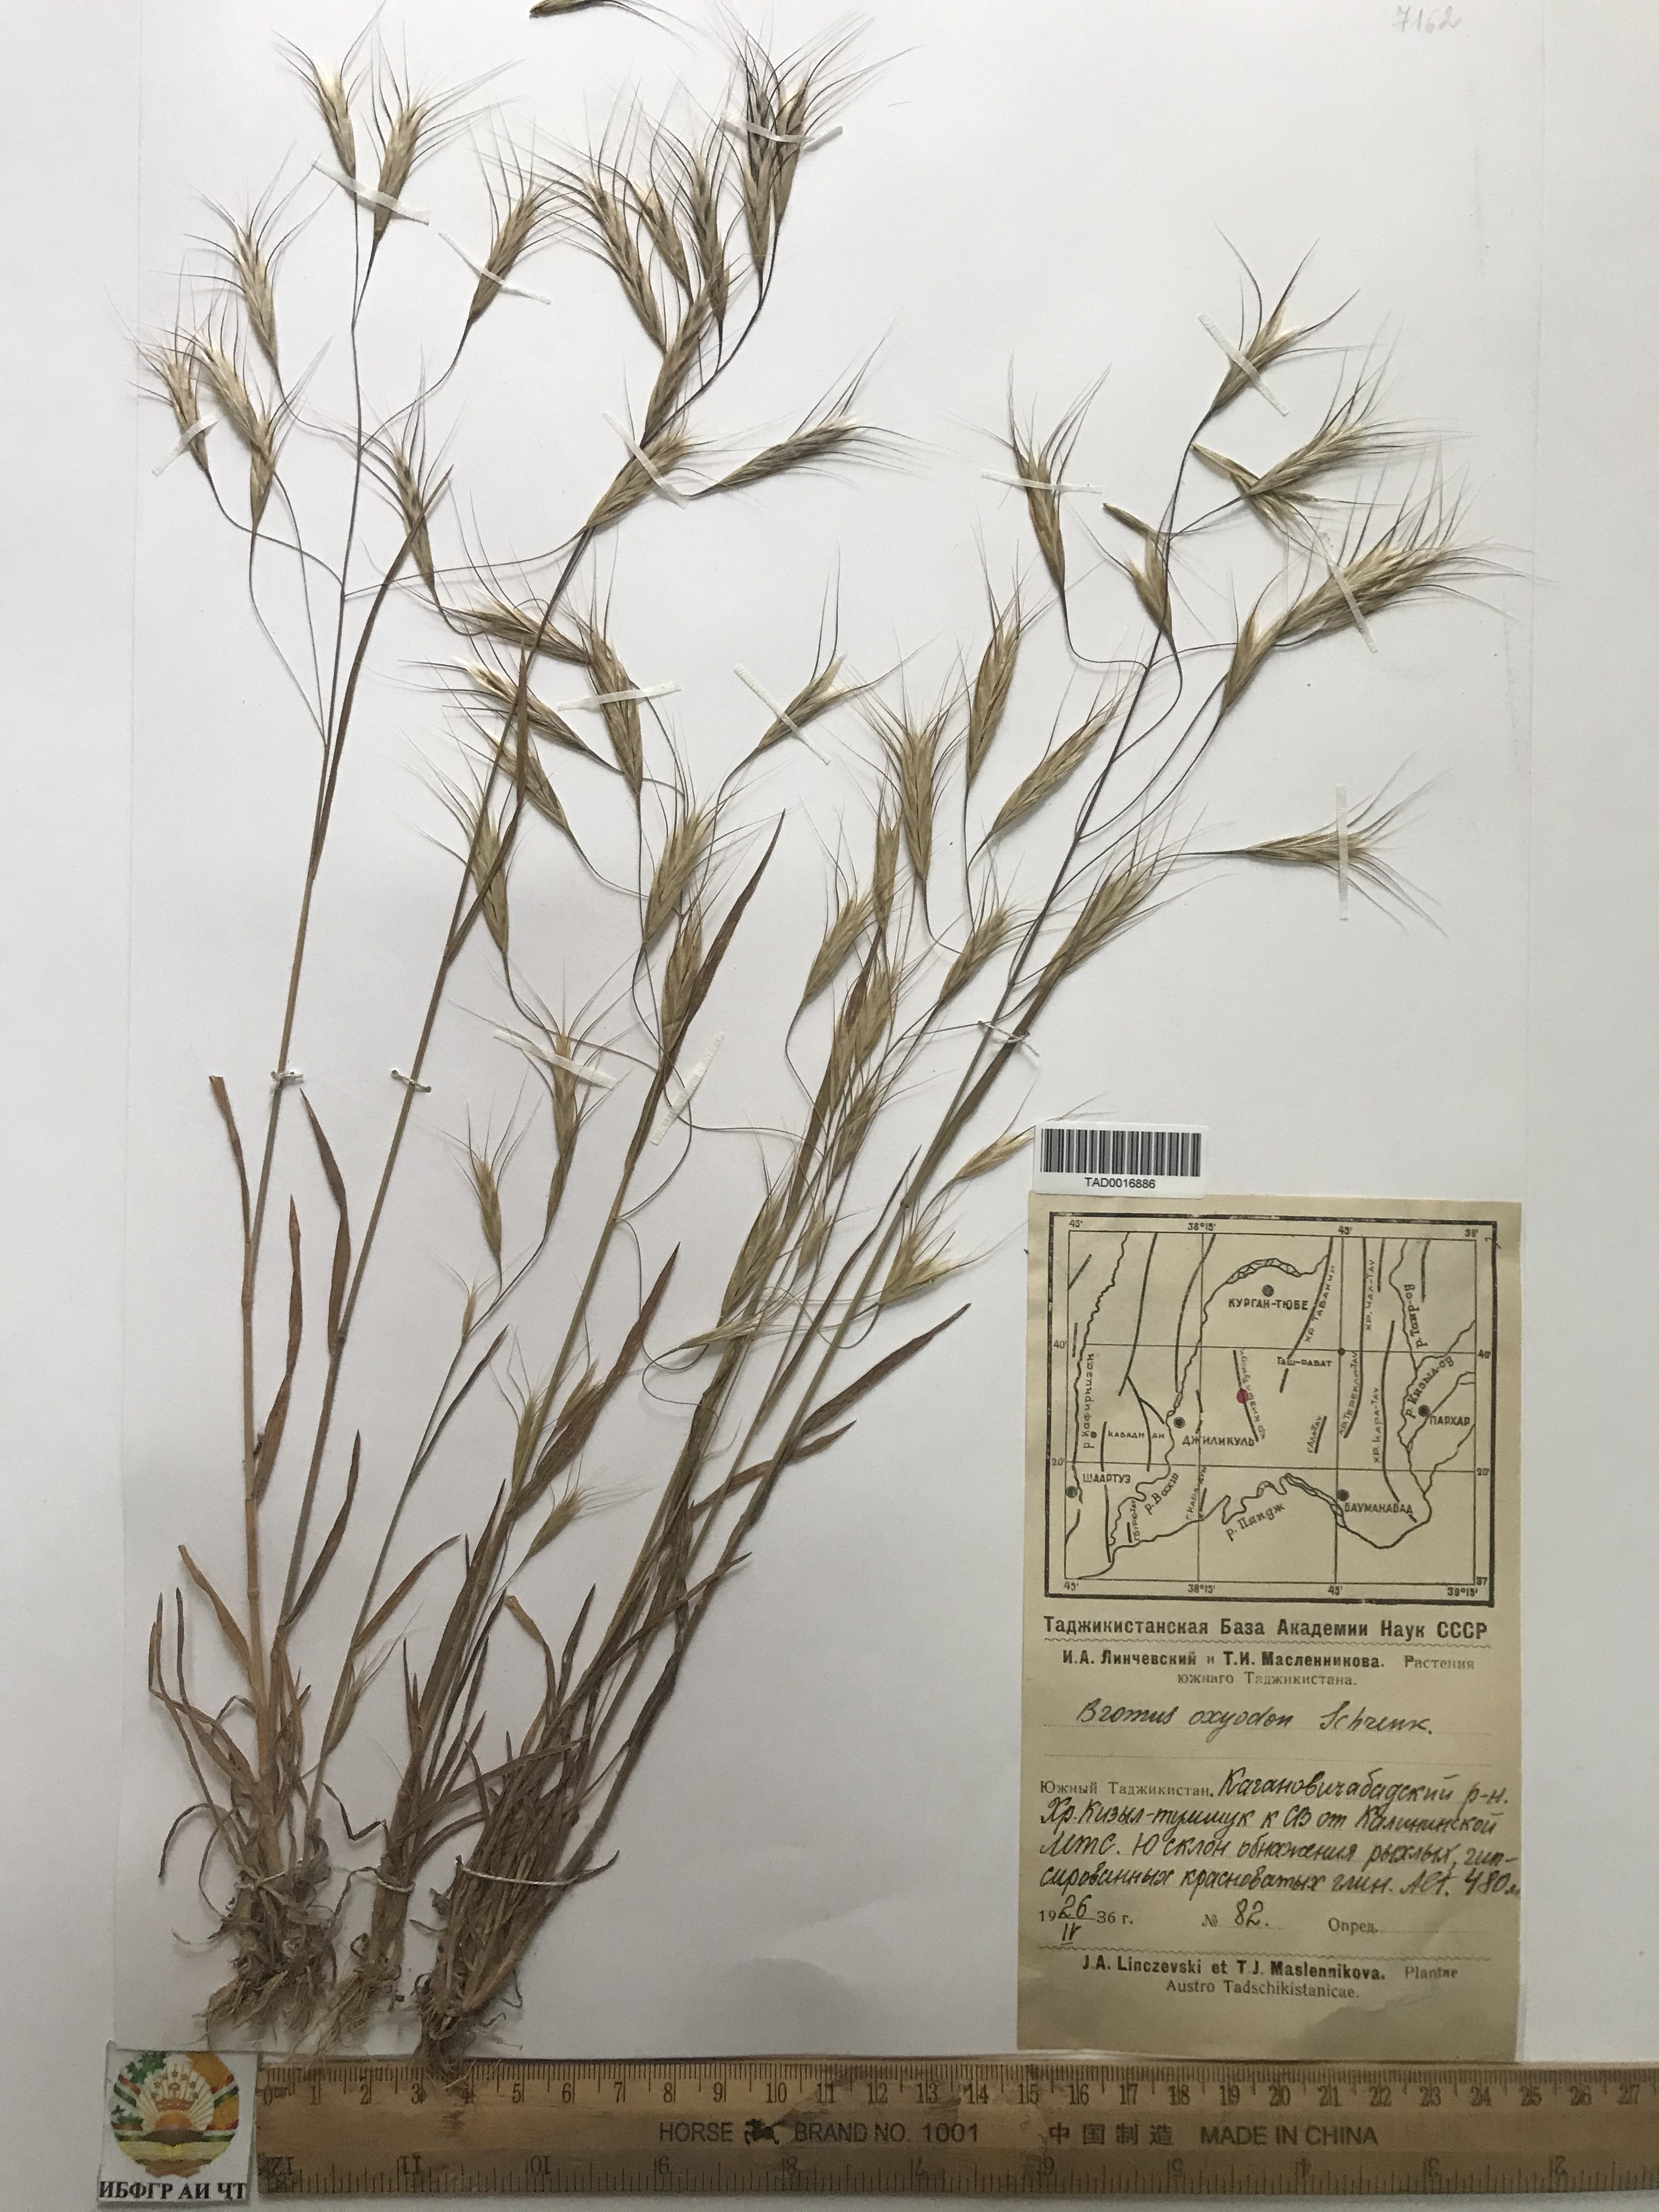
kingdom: Plantae
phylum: Tracheophyta
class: Liliopsida
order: Poales
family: Poaceae
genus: Bromus
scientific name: Bromus oxyodon
